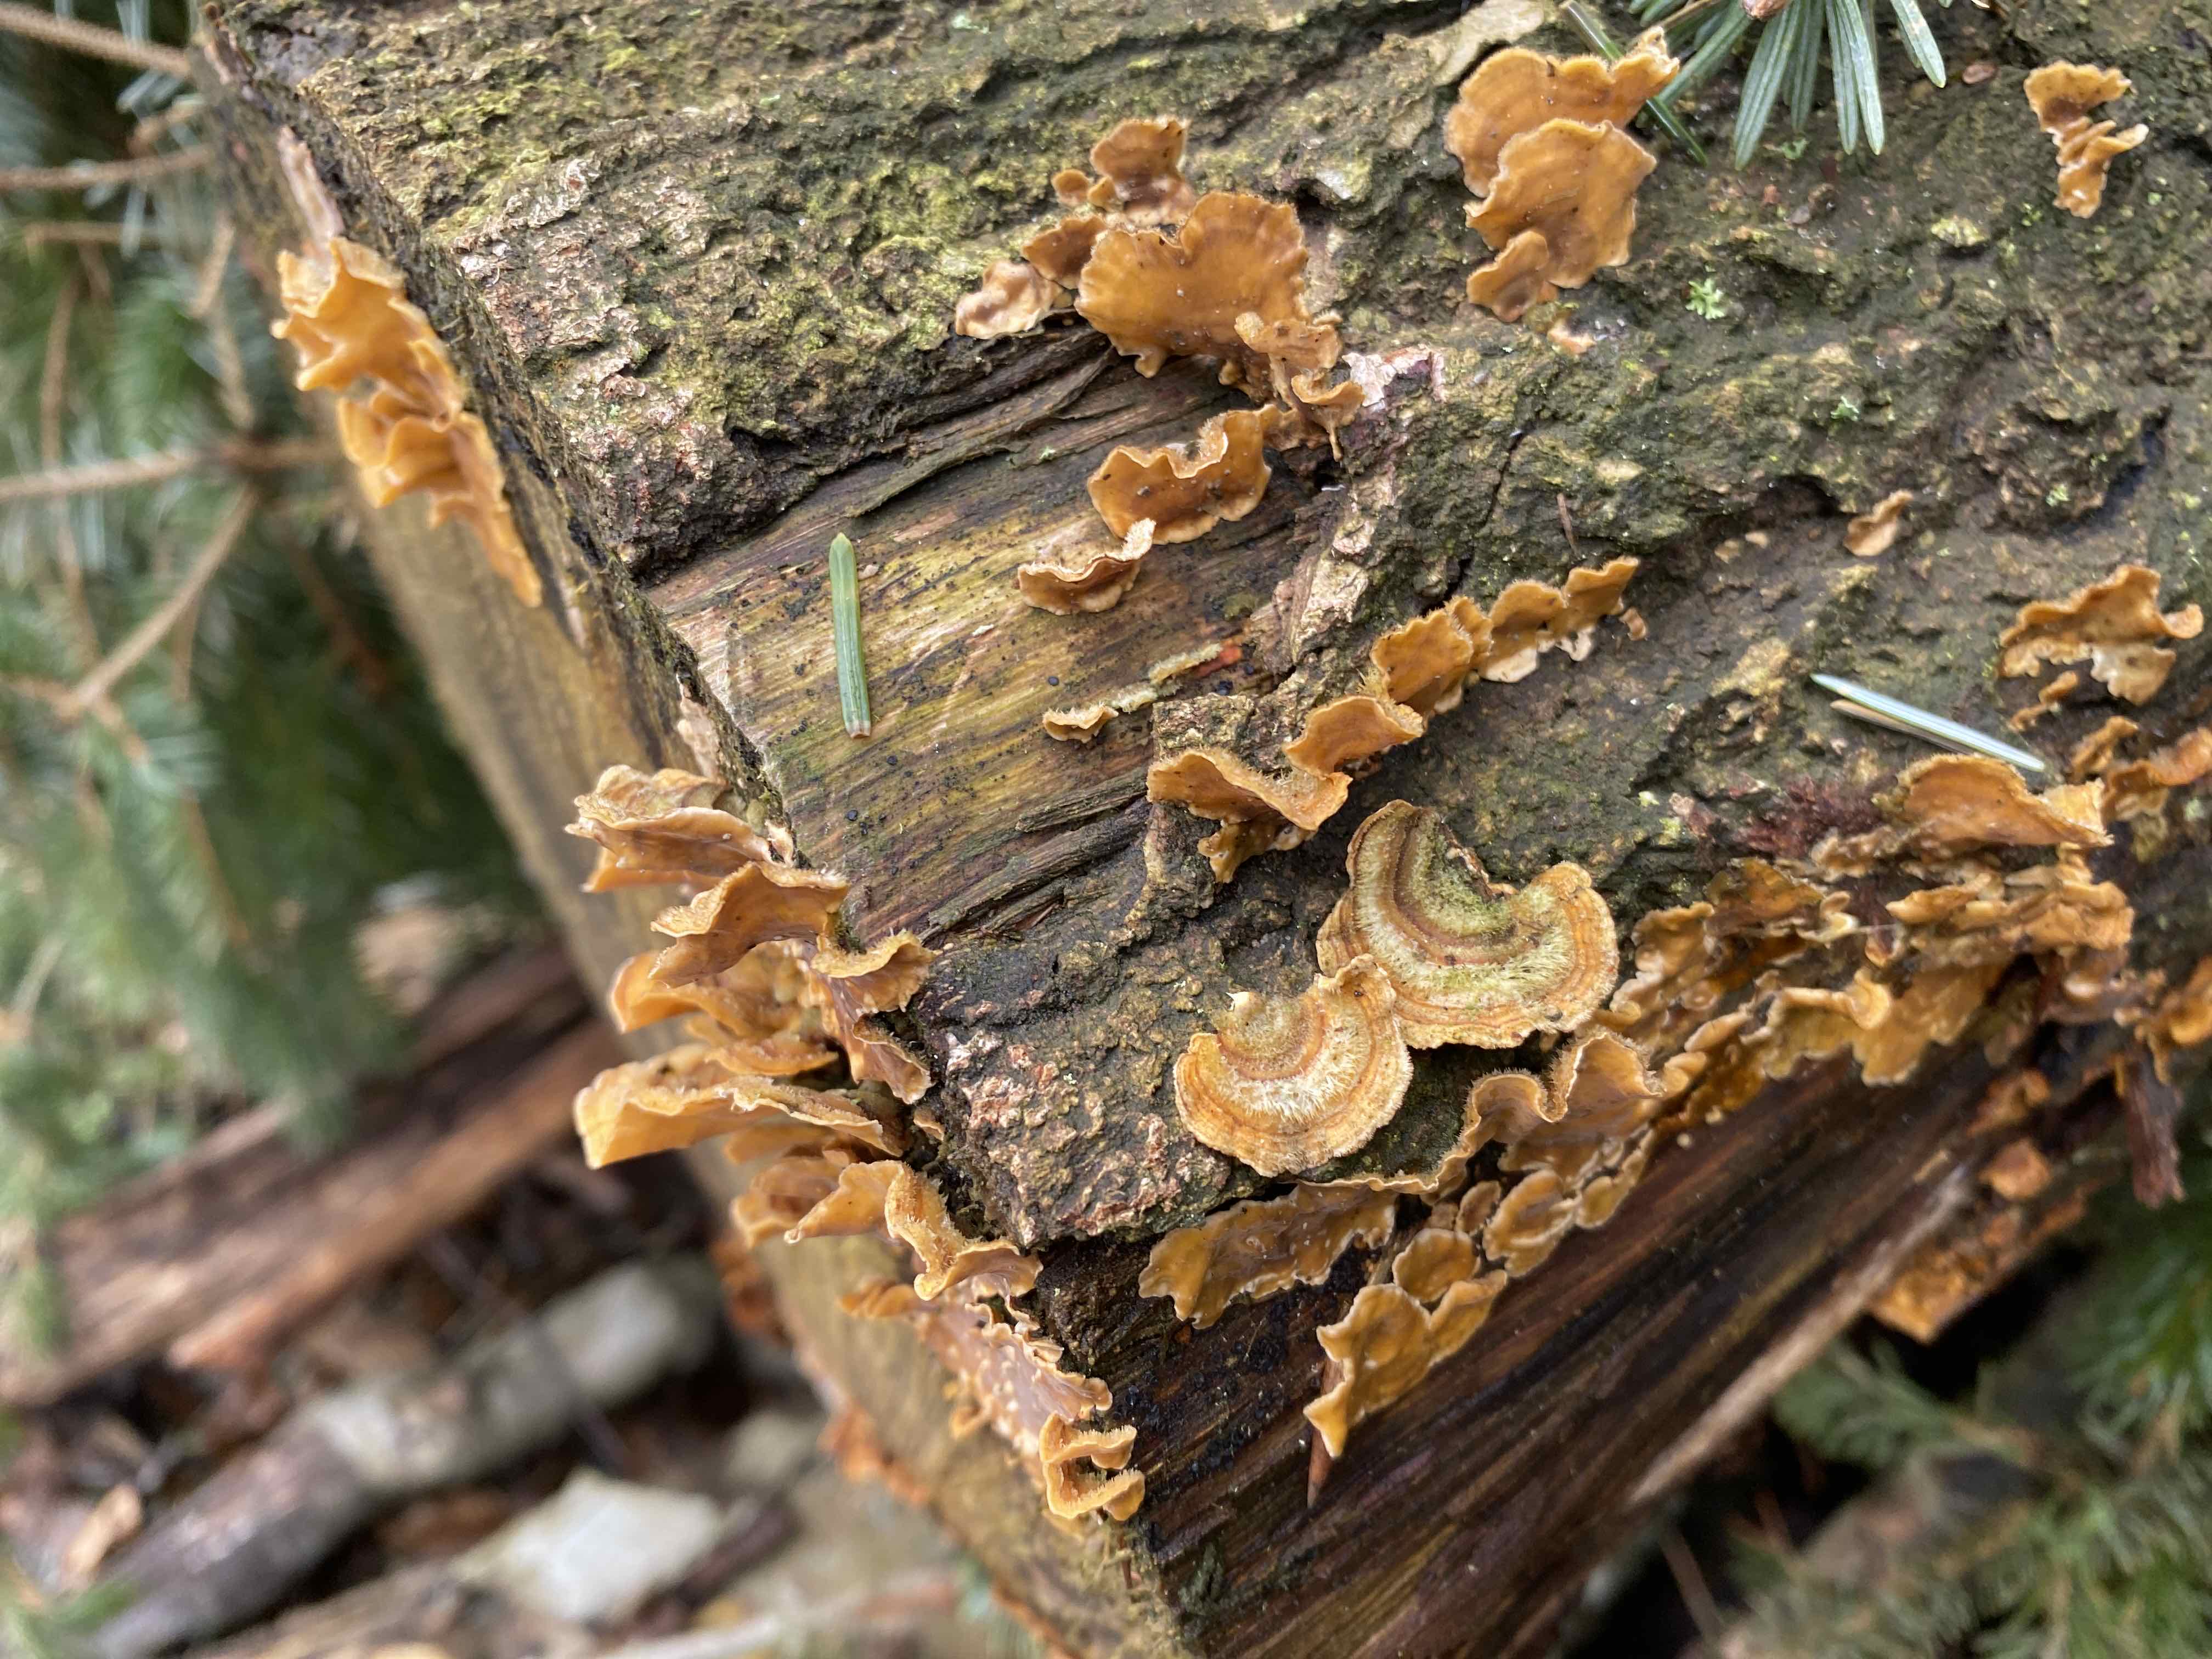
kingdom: Fungi
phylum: Basidiomycota
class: Agaricomycetes
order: Russulales
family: Stereaceae
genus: Stereum
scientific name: Stereum hirsutum
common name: håret lædersvamp
